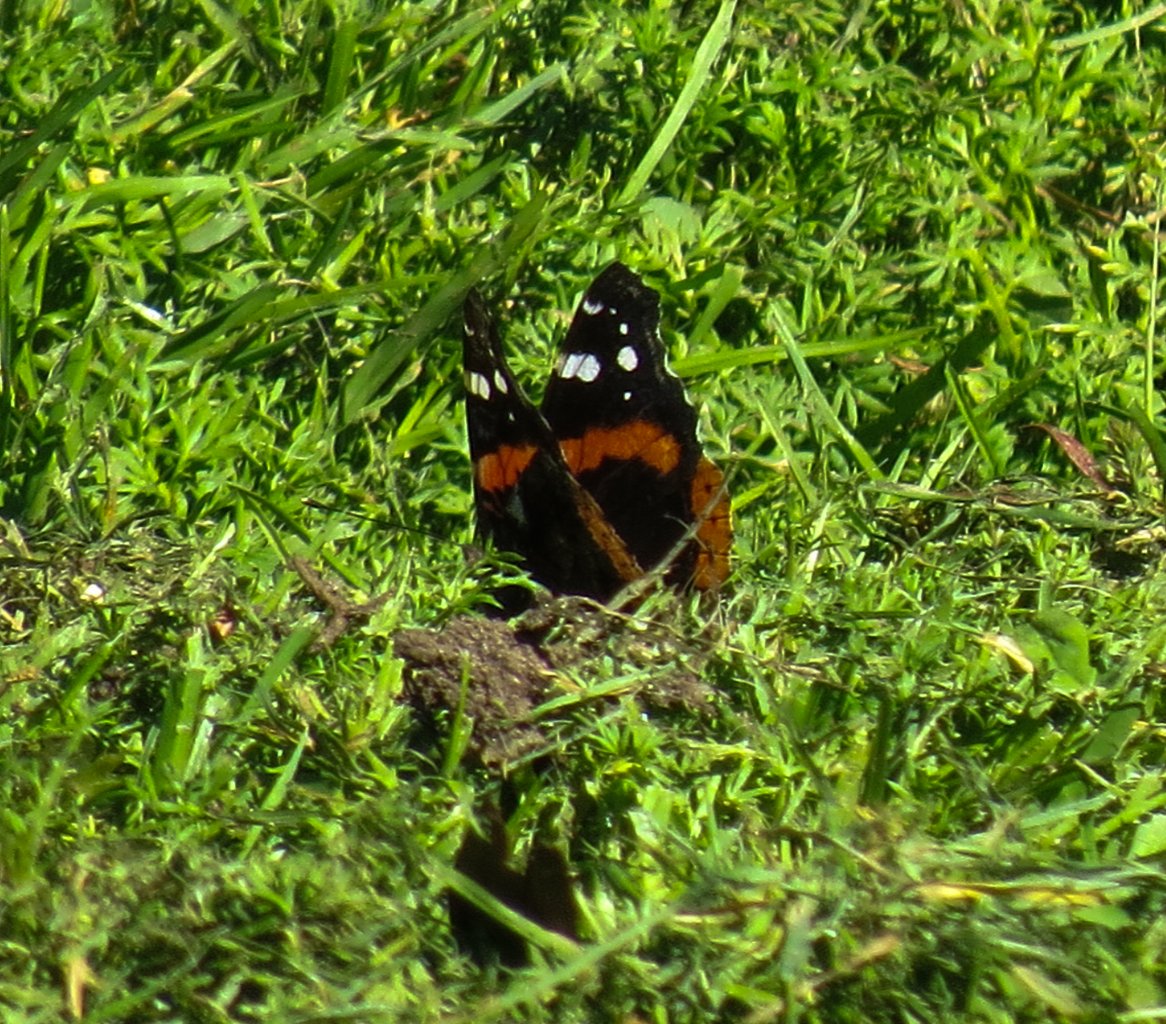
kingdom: Animalia
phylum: Arthropoda
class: Insecta
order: Lepidoptera
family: Nymphalidae
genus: Vanessa
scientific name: Vanessa atalanta
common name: Red Admiral
